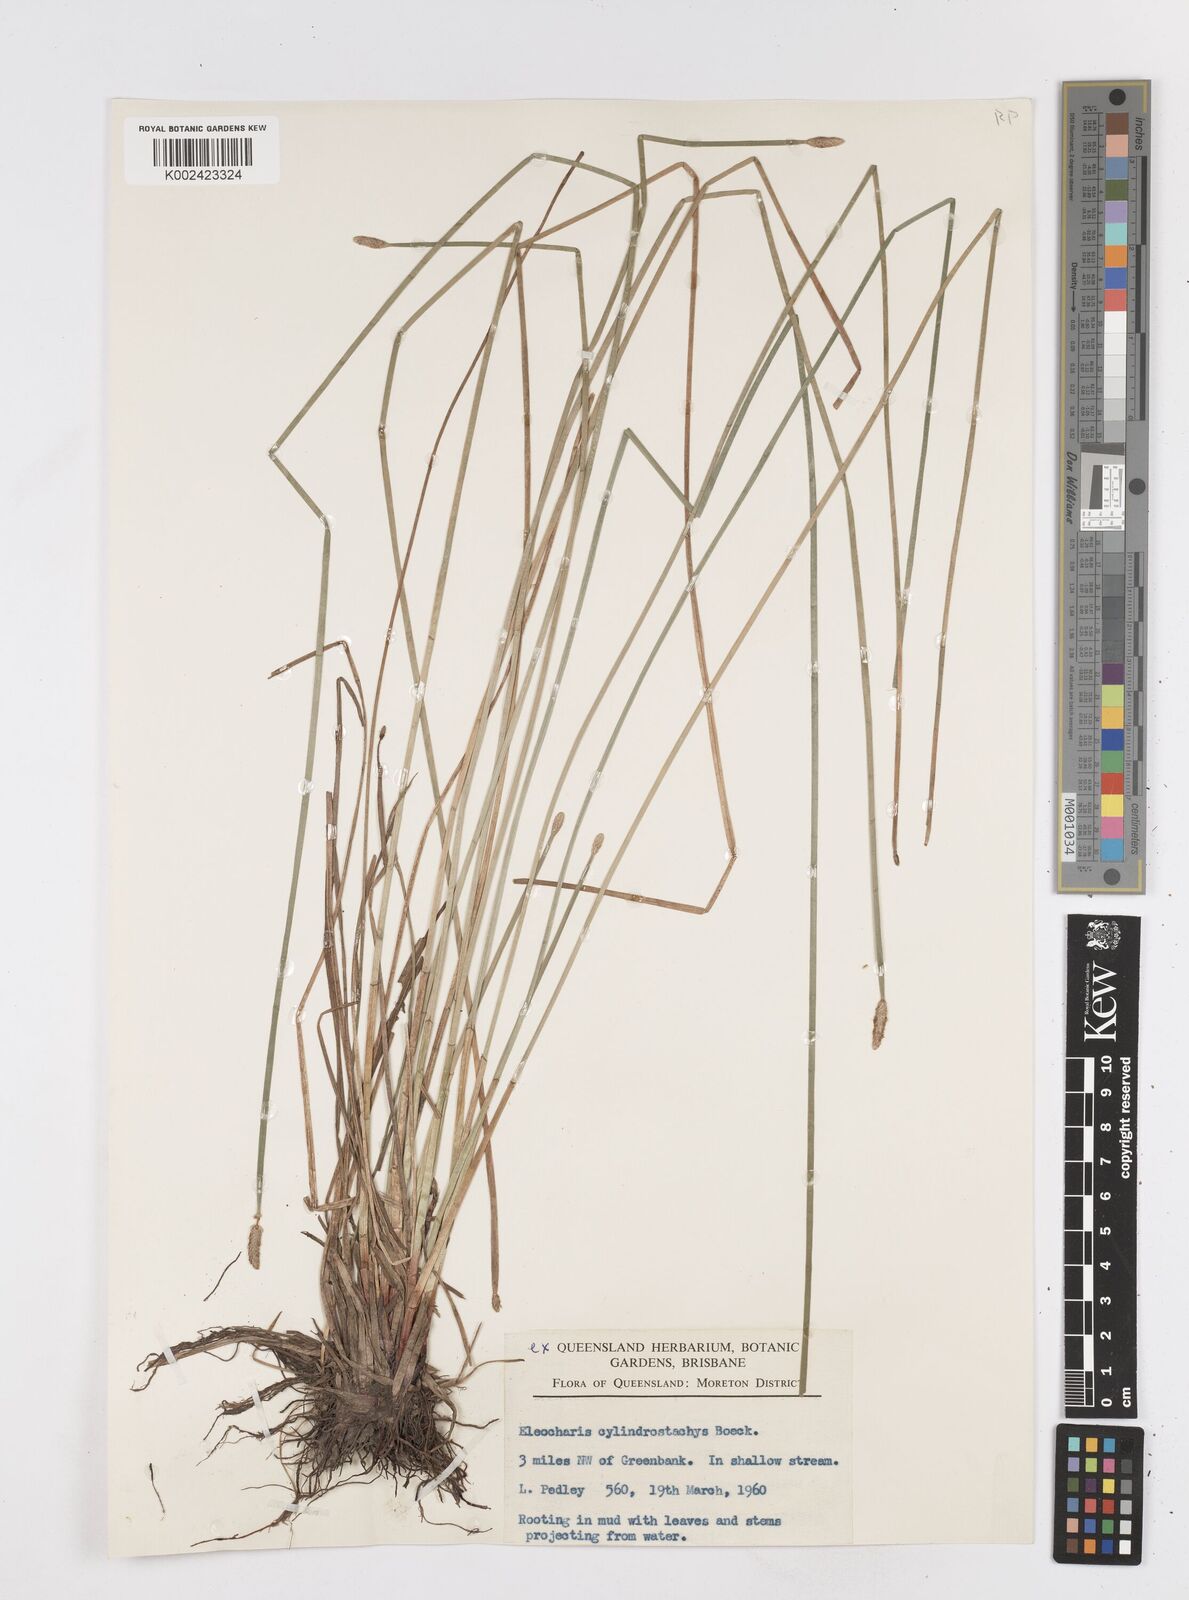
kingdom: Plantae
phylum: Tracheophyta
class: Liliopsida
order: Poales
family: Cyperaceae
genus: Eleocharis
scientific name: Eleocharis cylindrostachys
